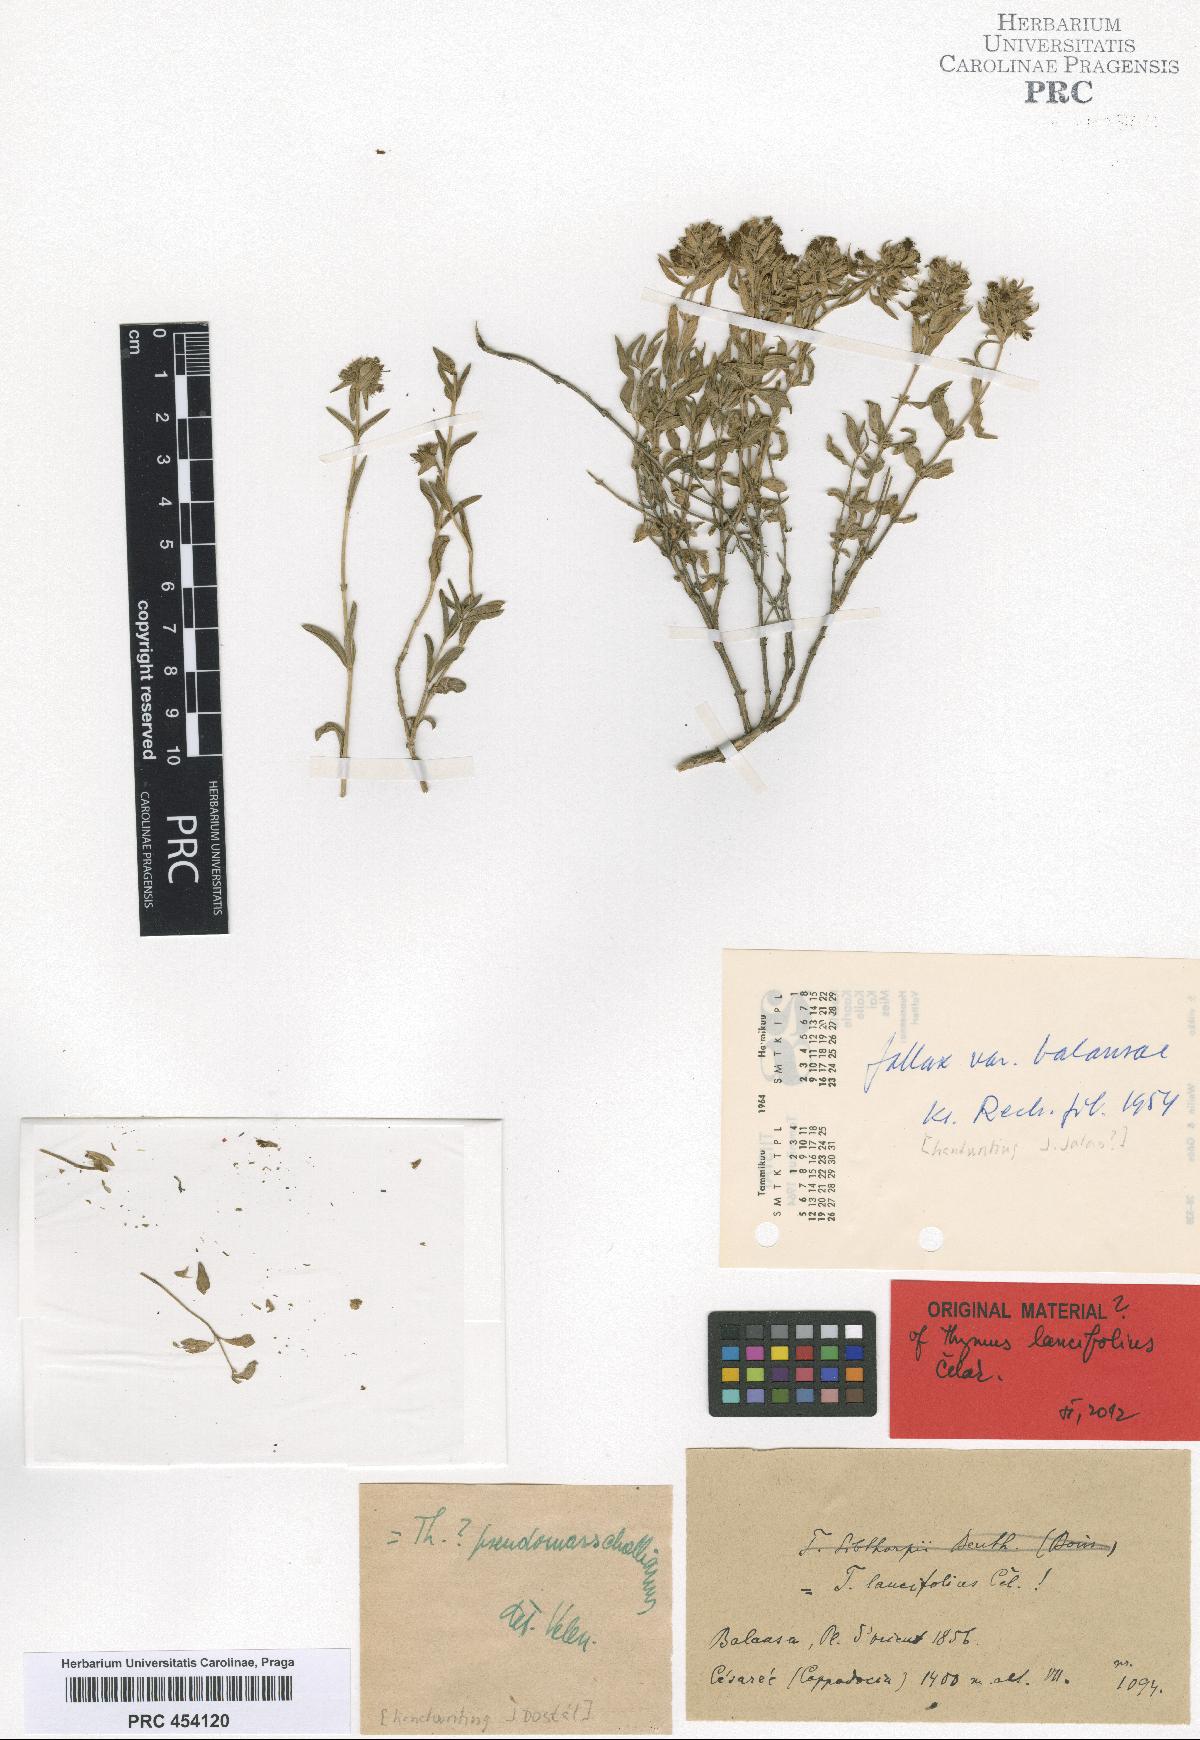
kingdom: Plantae
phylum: Tracheophyta
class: Magnoliopsida
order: Lamiales
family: Lamiaceae
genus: Thymus
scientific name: Thymus daenensis
